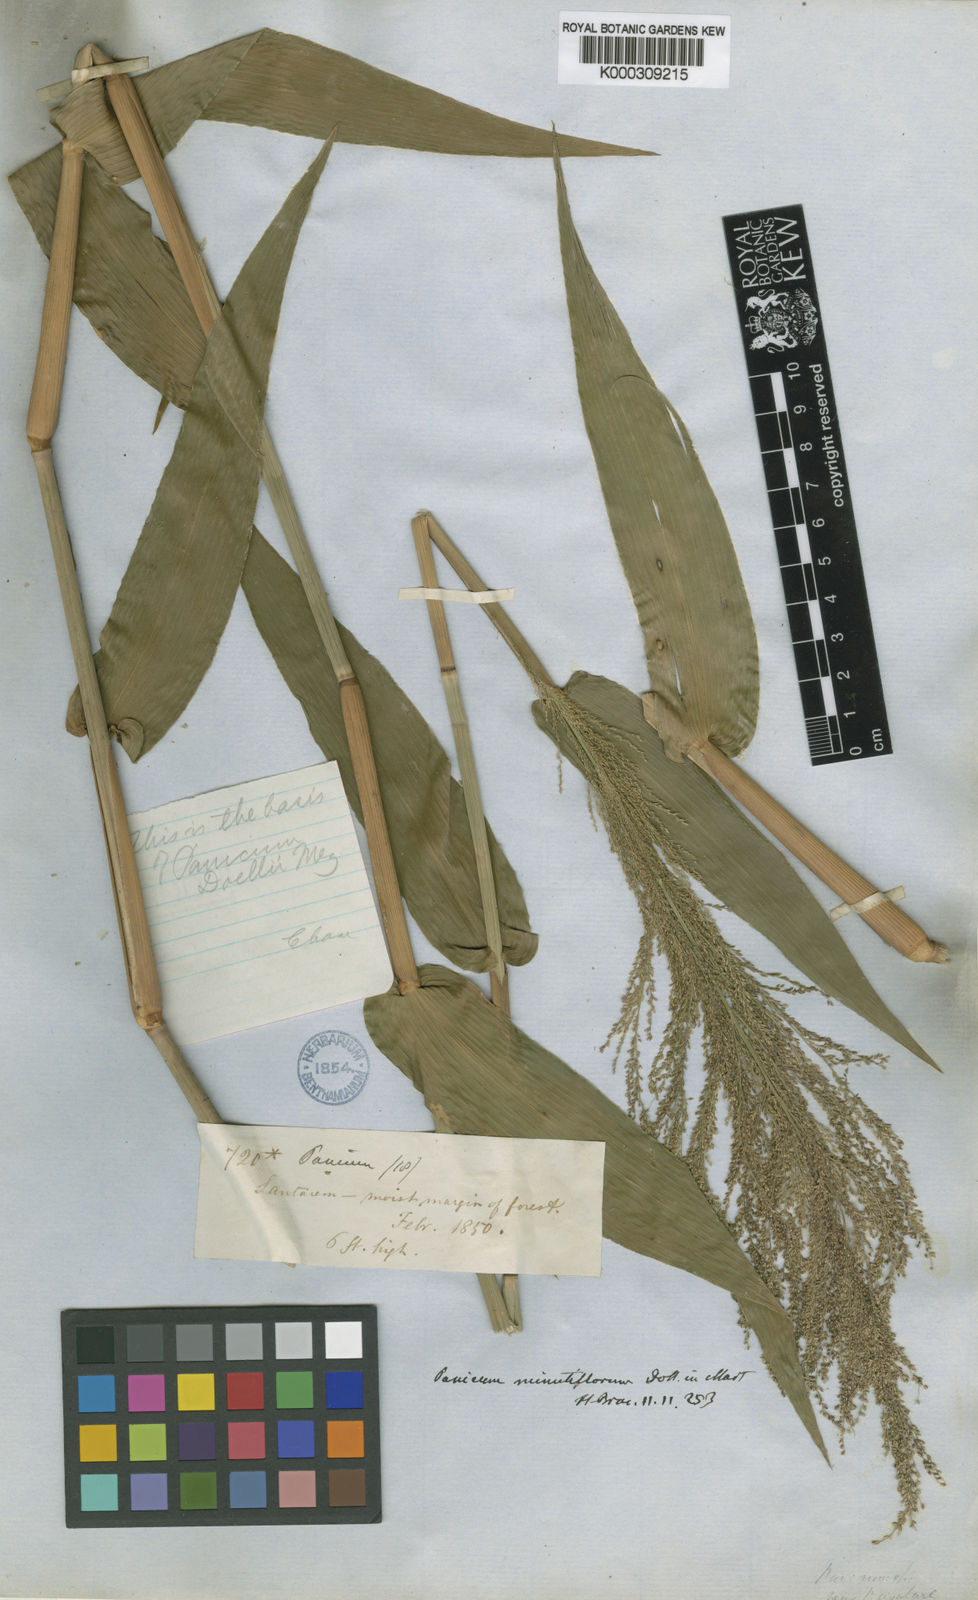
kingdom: Plantae
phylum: Tracheophyta
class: Liliopsida
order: Poales
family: Poaceae
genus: Panicum
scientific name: Panicum
